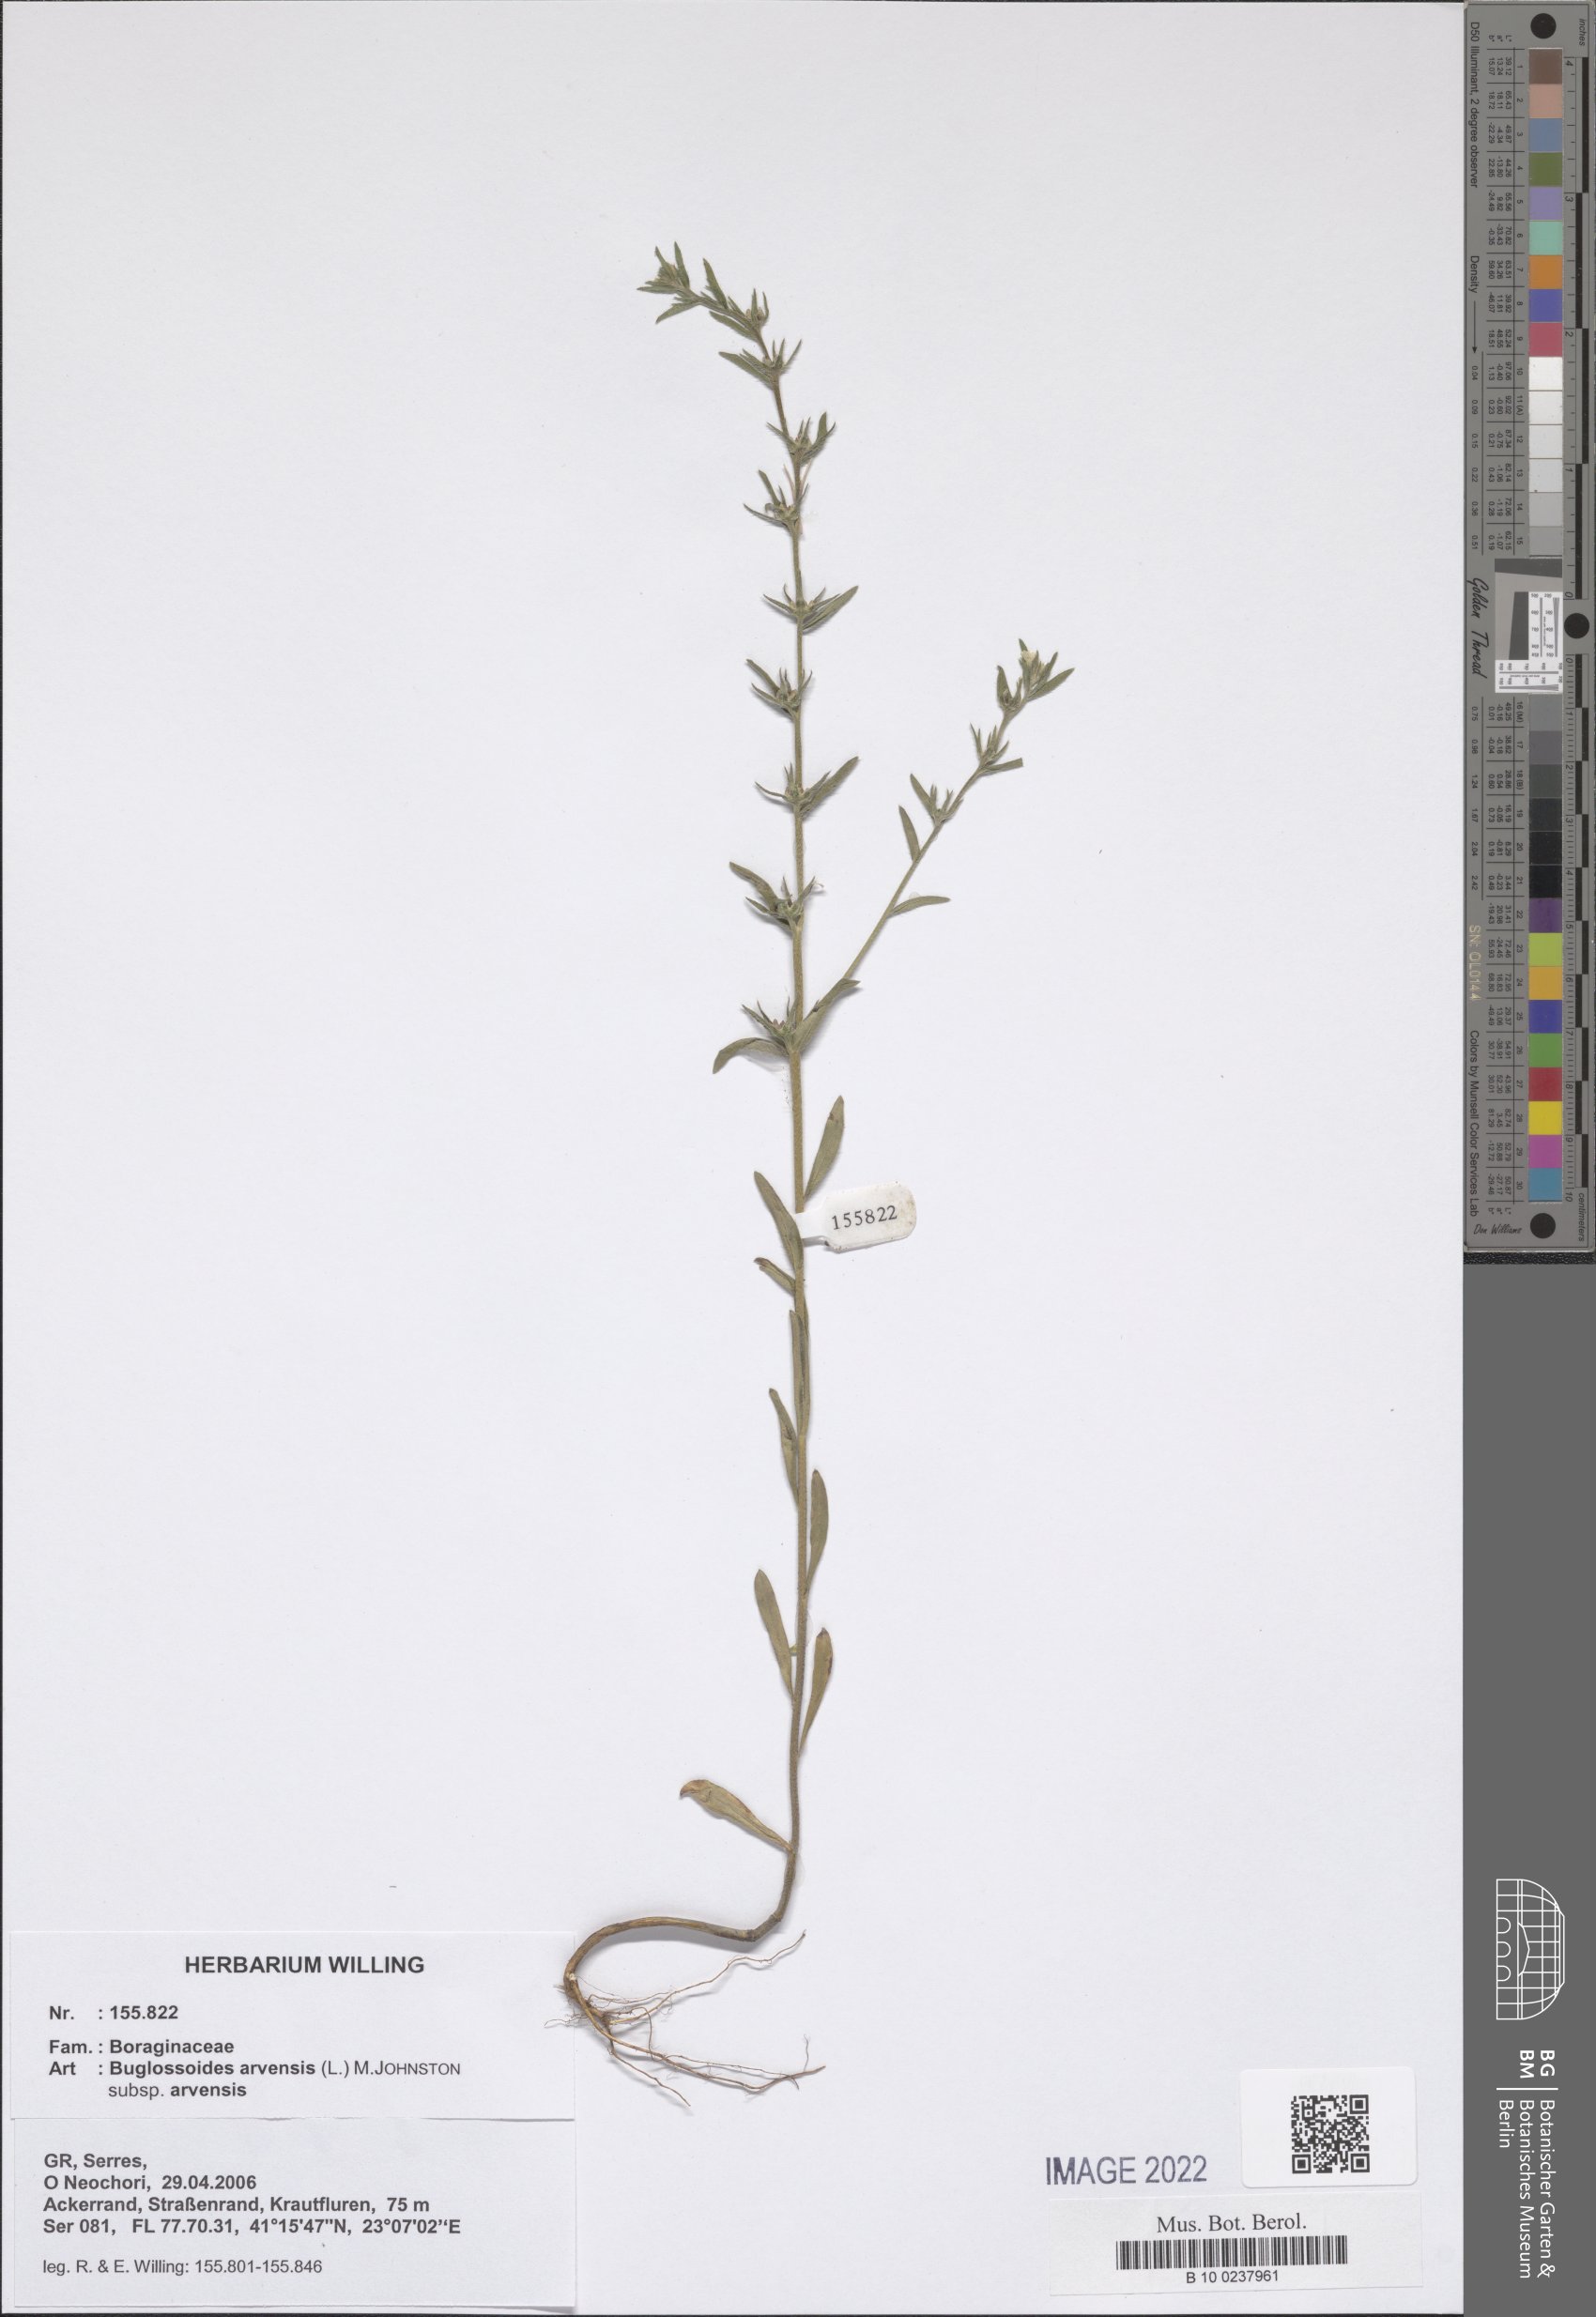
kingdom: Plantae
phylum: Tracheophyta
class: Magnoliopsida
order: Boraginales
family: Boraginaceae
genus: Buglossoides
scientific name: Buglossoides arvensis
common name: Corn gromwell
